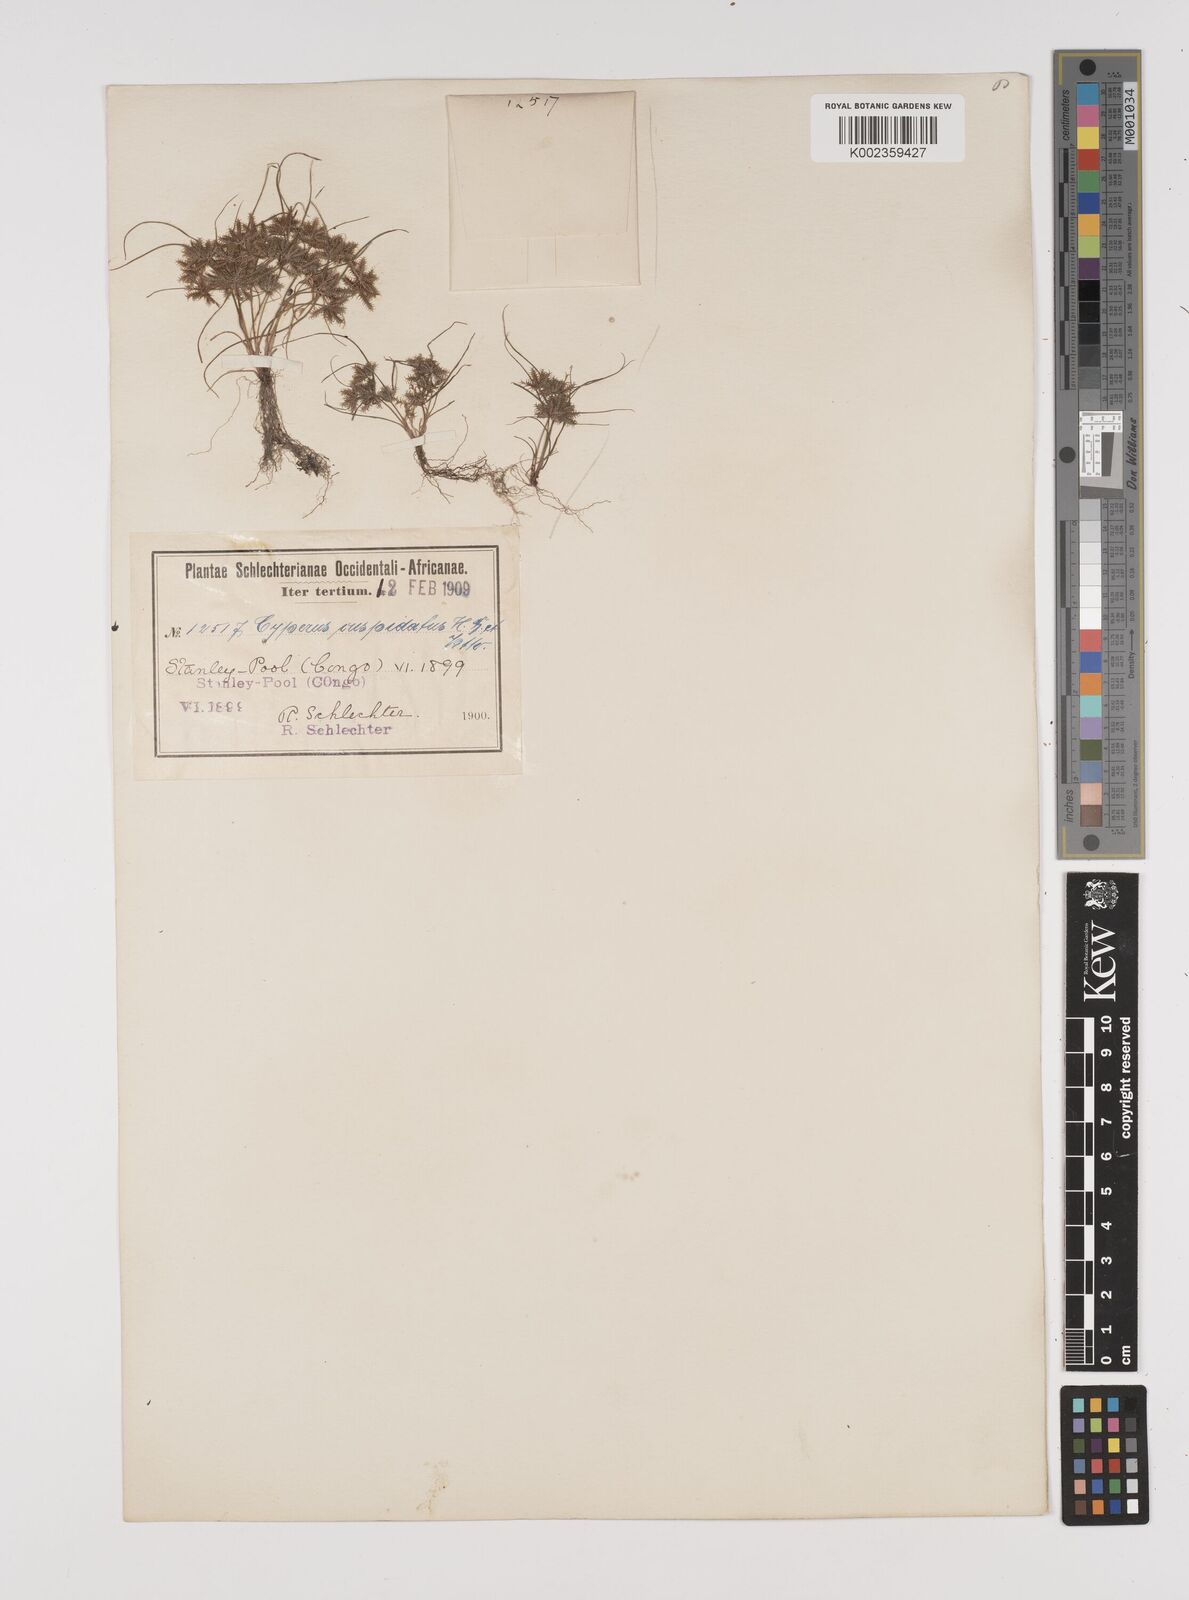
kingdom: Plantae
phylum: Tracheophyta
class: Liliopsida
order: Poales
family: Cyperaceae
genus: Cyperus
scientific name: Cyperus cuspidatus
